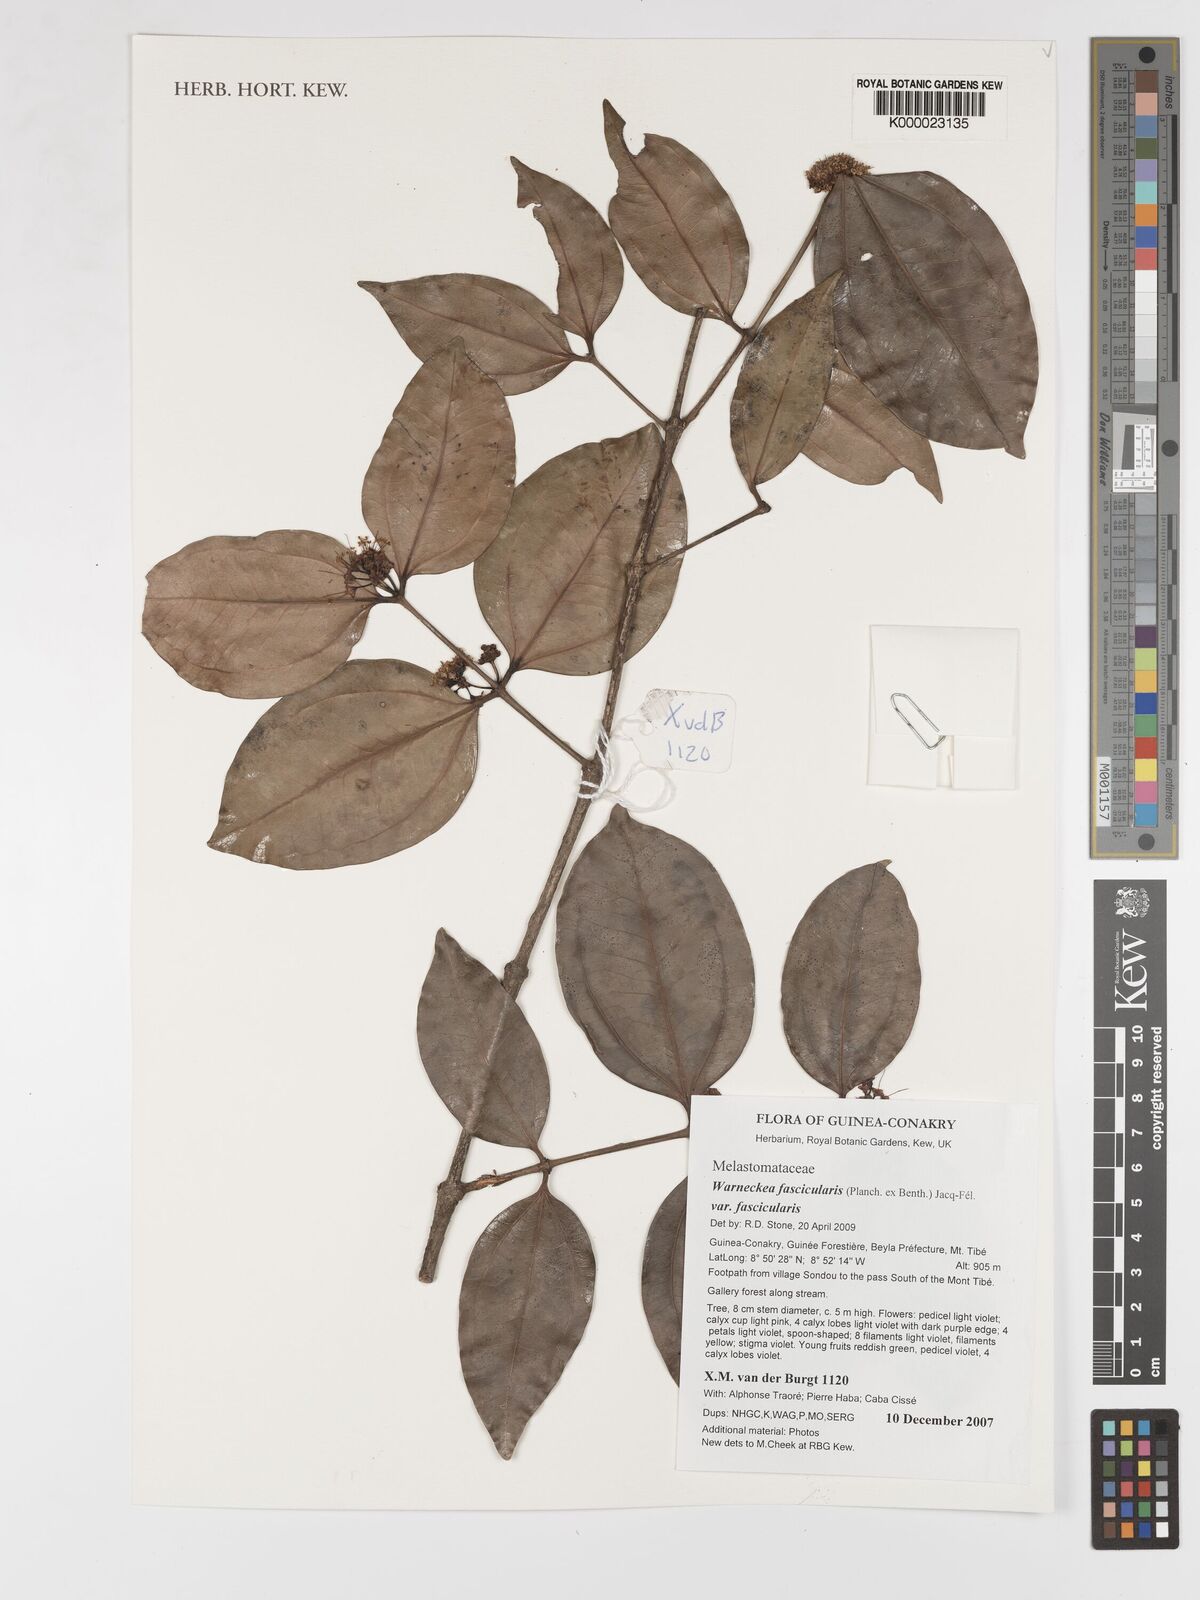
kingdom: Plantae
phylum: Tracheophyta
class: Magnoliopsida
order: Myrtales
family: Melastomataceae
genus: Warneckea
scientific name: Warneckea fascicularis
